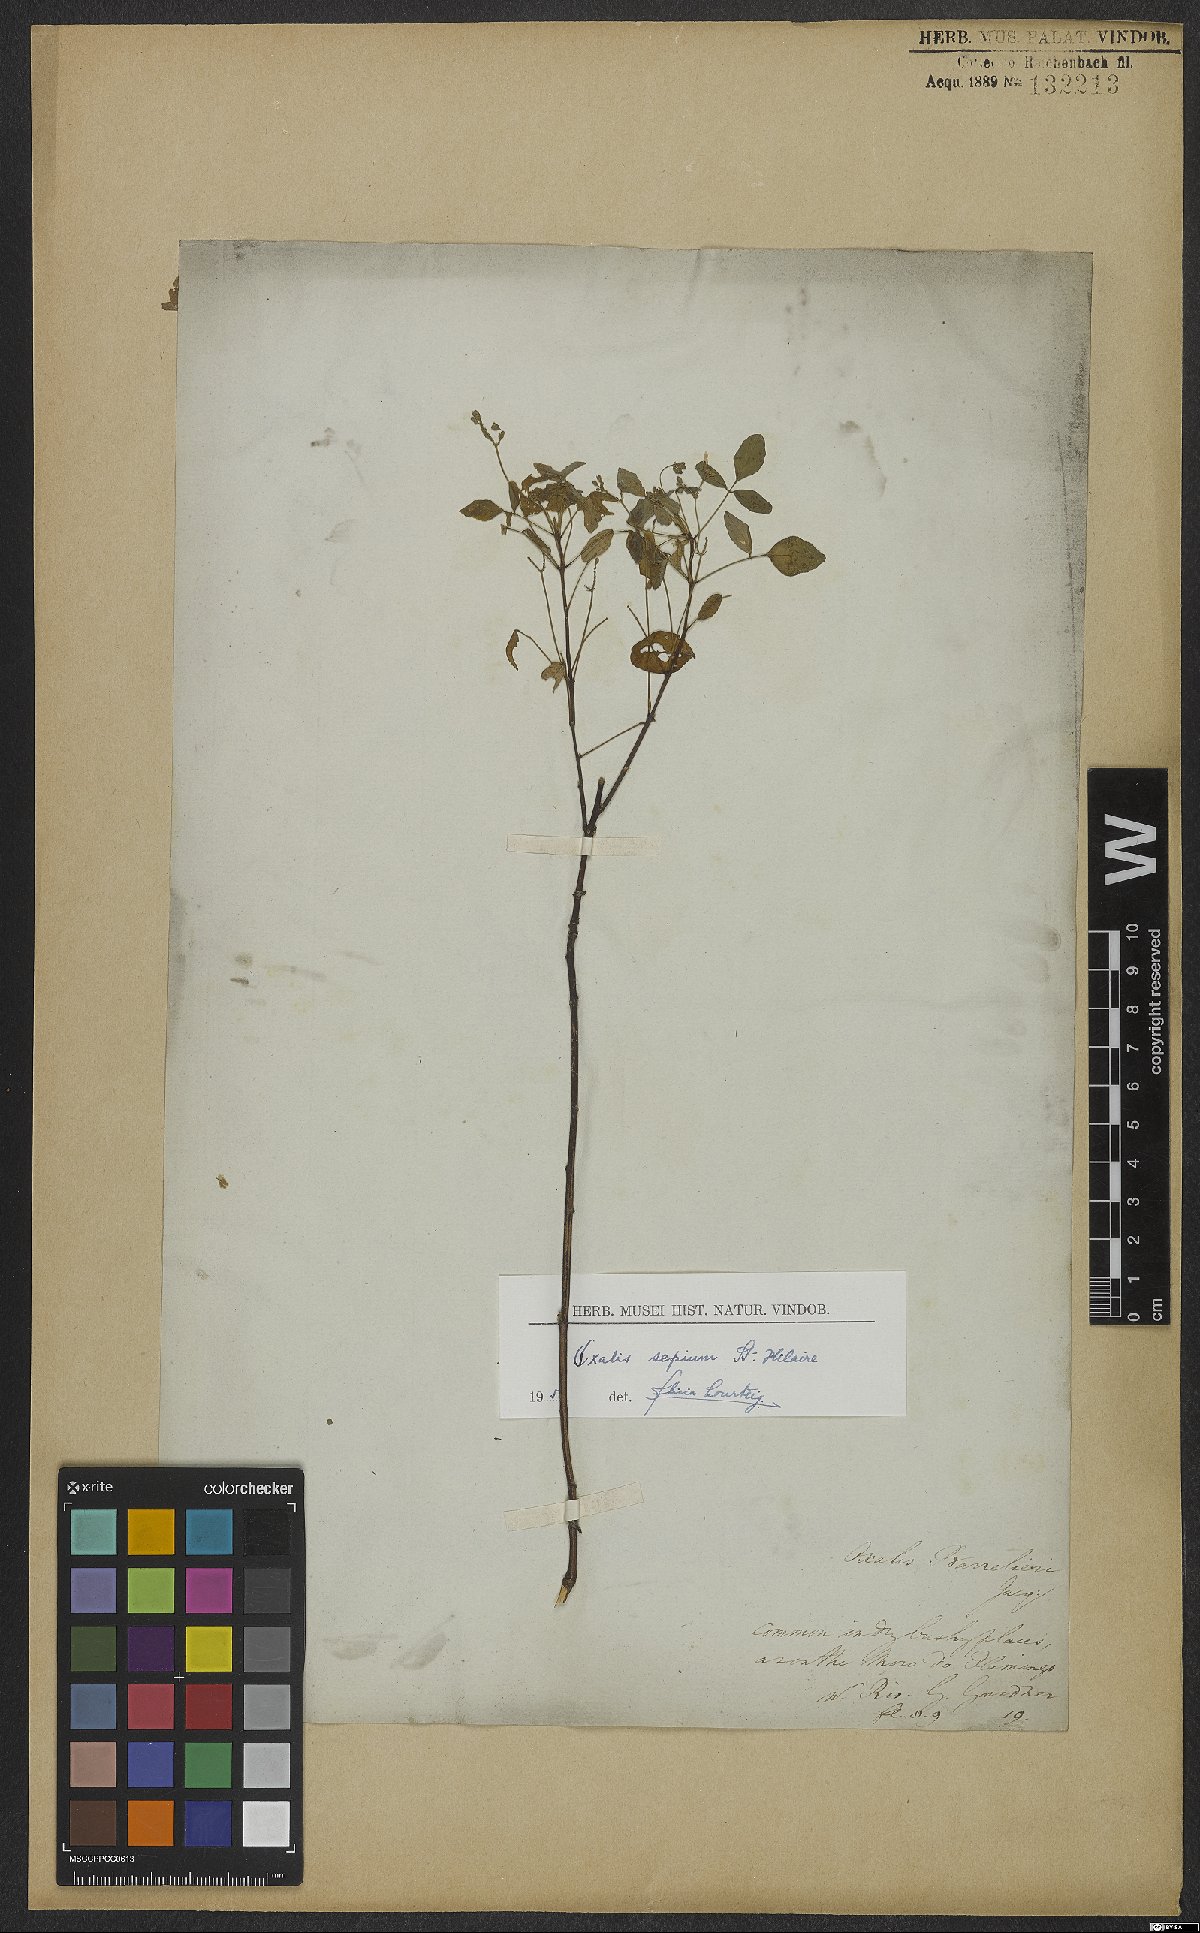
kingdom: Plantae
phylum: Tracheophyta
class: Magnoliopsida
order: Oxalidales
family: Oxalidaceae
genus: Oxalis
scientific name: Oxalis sepium
